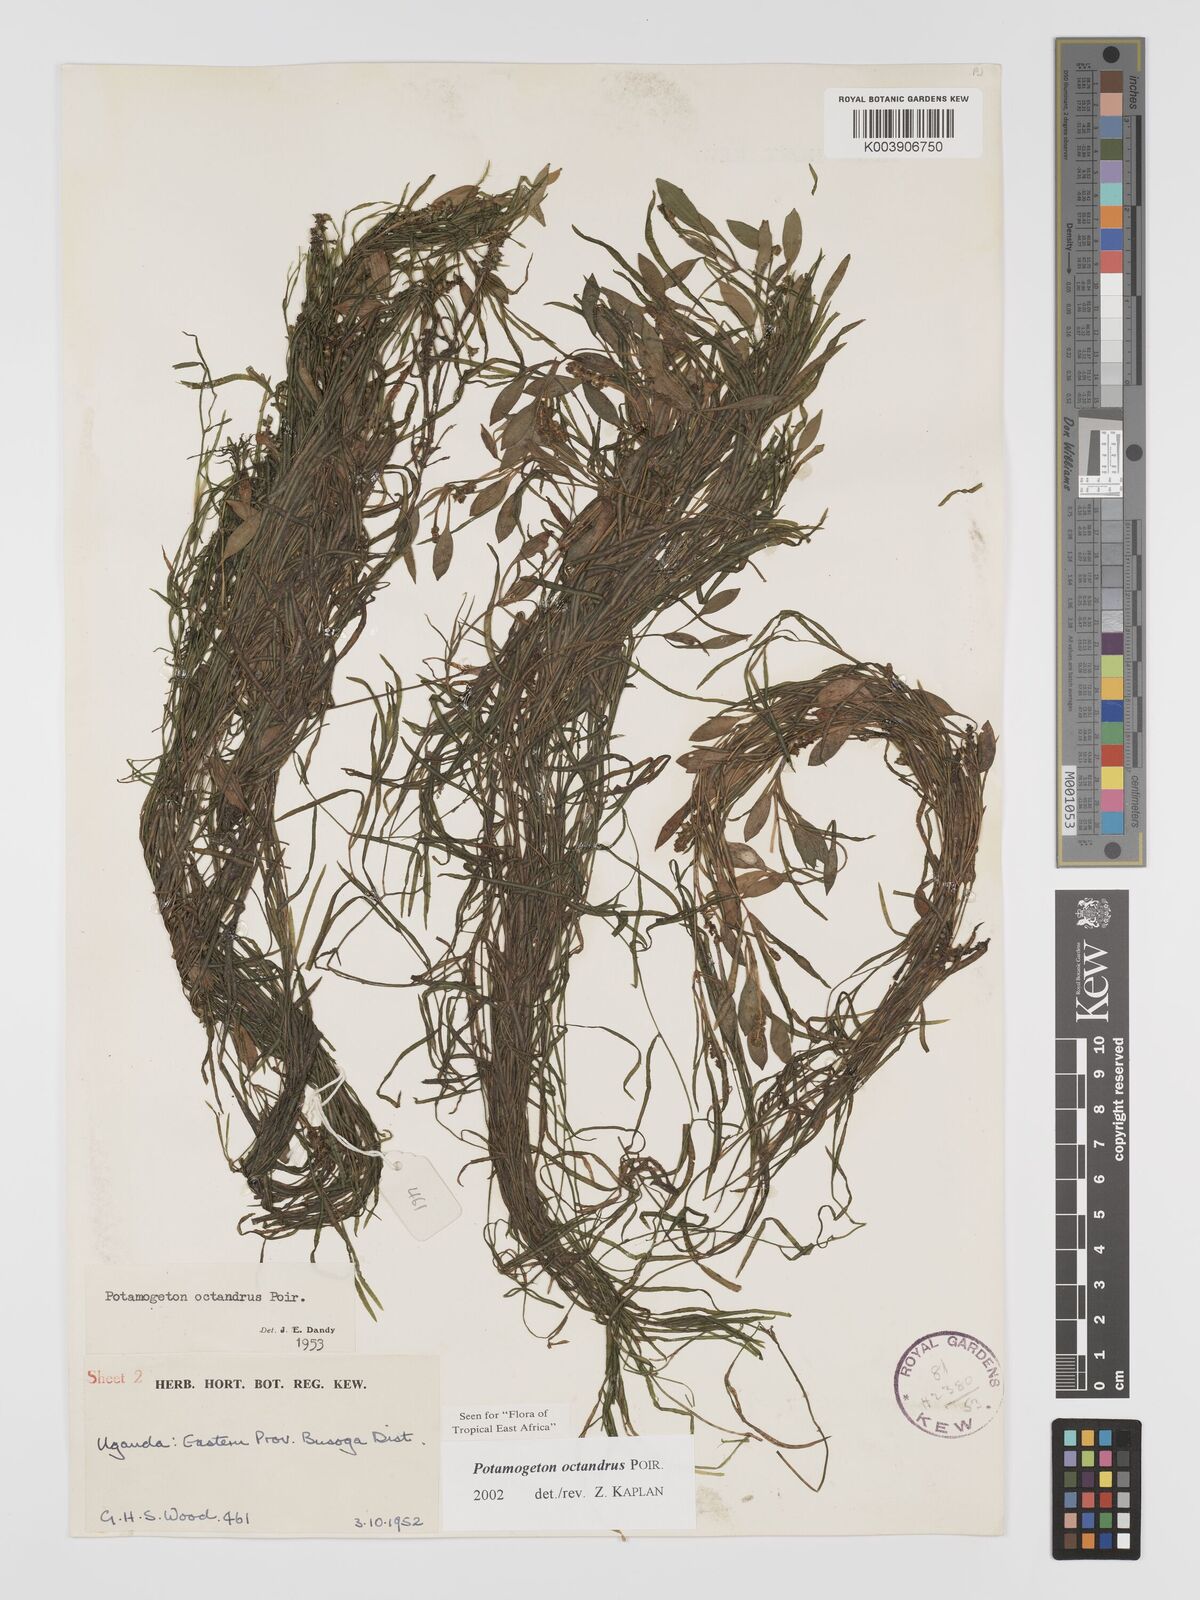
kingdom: Plantae
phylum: Tracheophyta
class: Liliopsida
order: Alismatales
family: Potamogetonaceae
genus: Potamogeton
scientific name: Potamogeton octandrus
